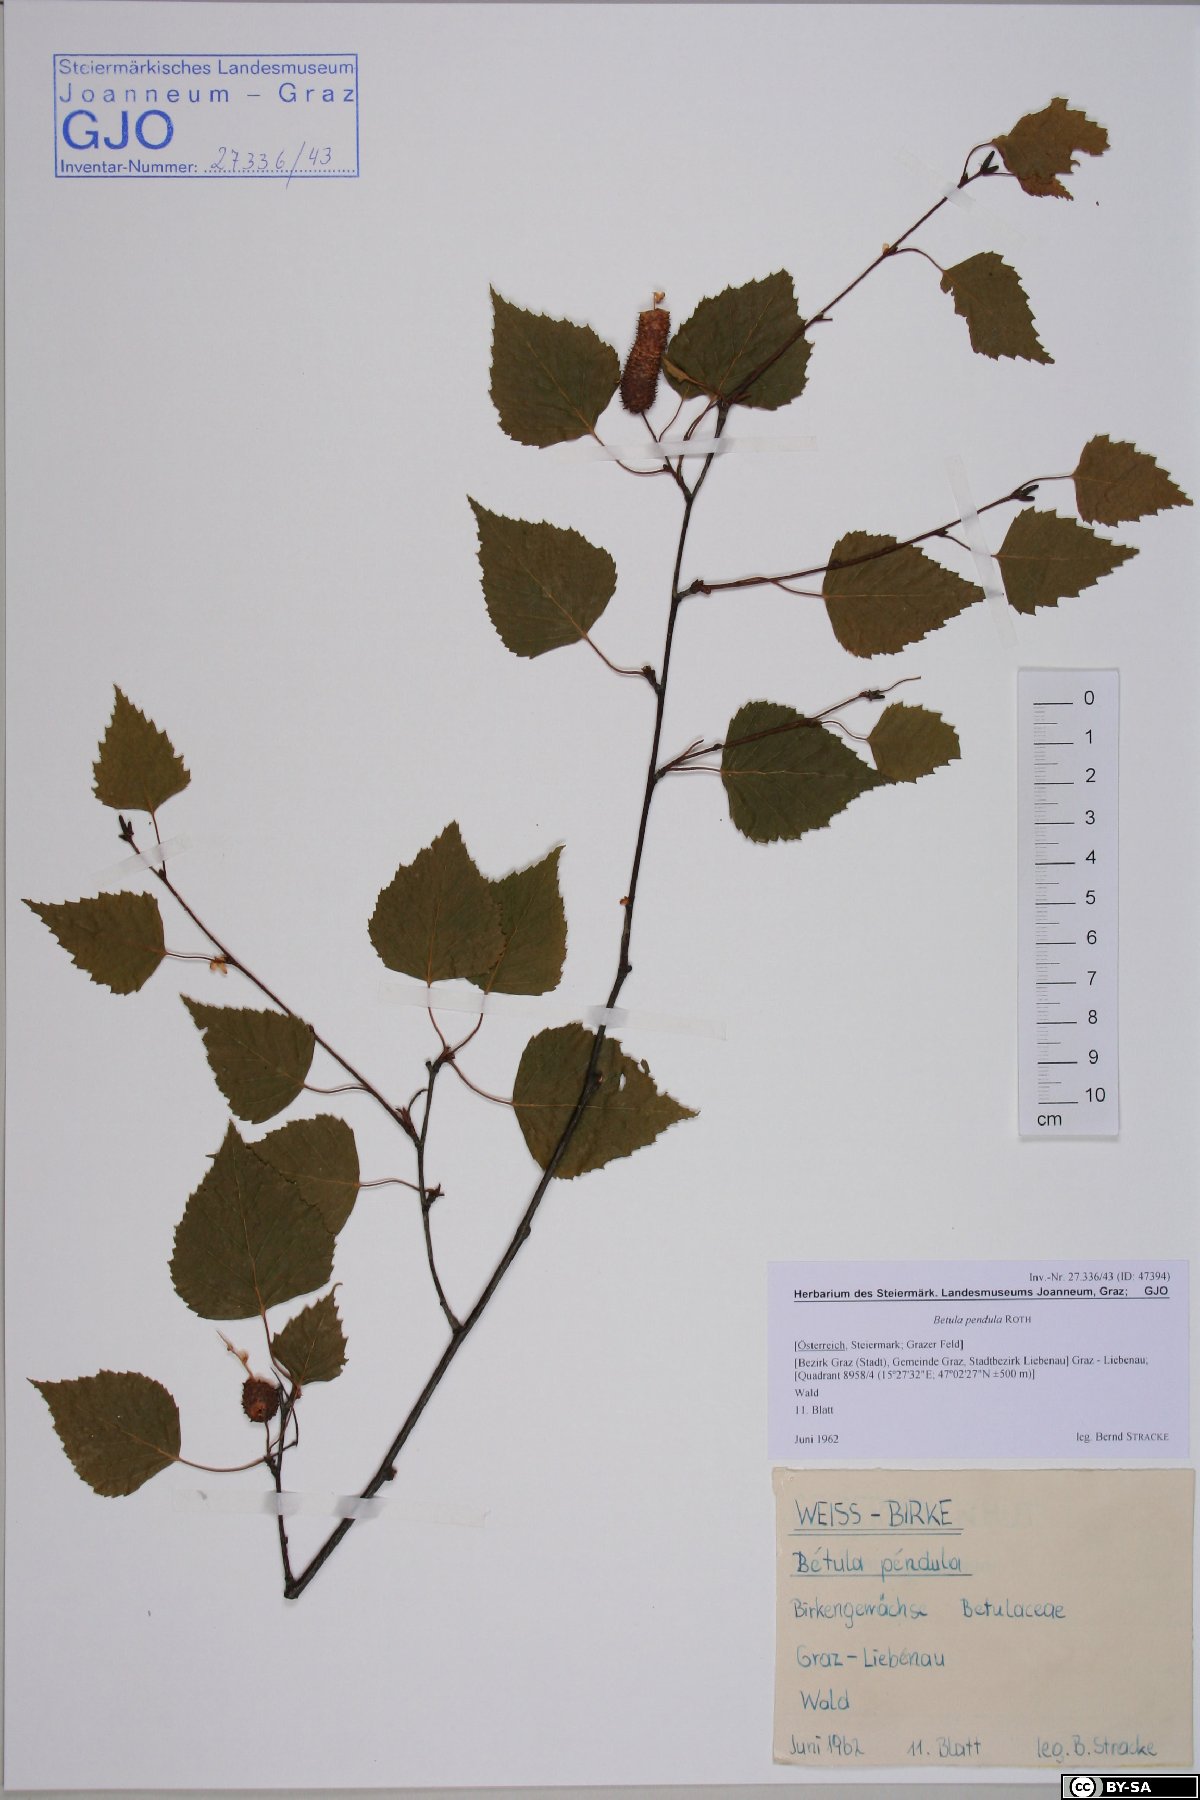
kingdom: Plantae
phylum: Tracheophyta
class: Magnoliopsida
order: Fagales
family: Betulaceae
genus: Betula
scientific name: Betula pendula
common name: Silver birch
